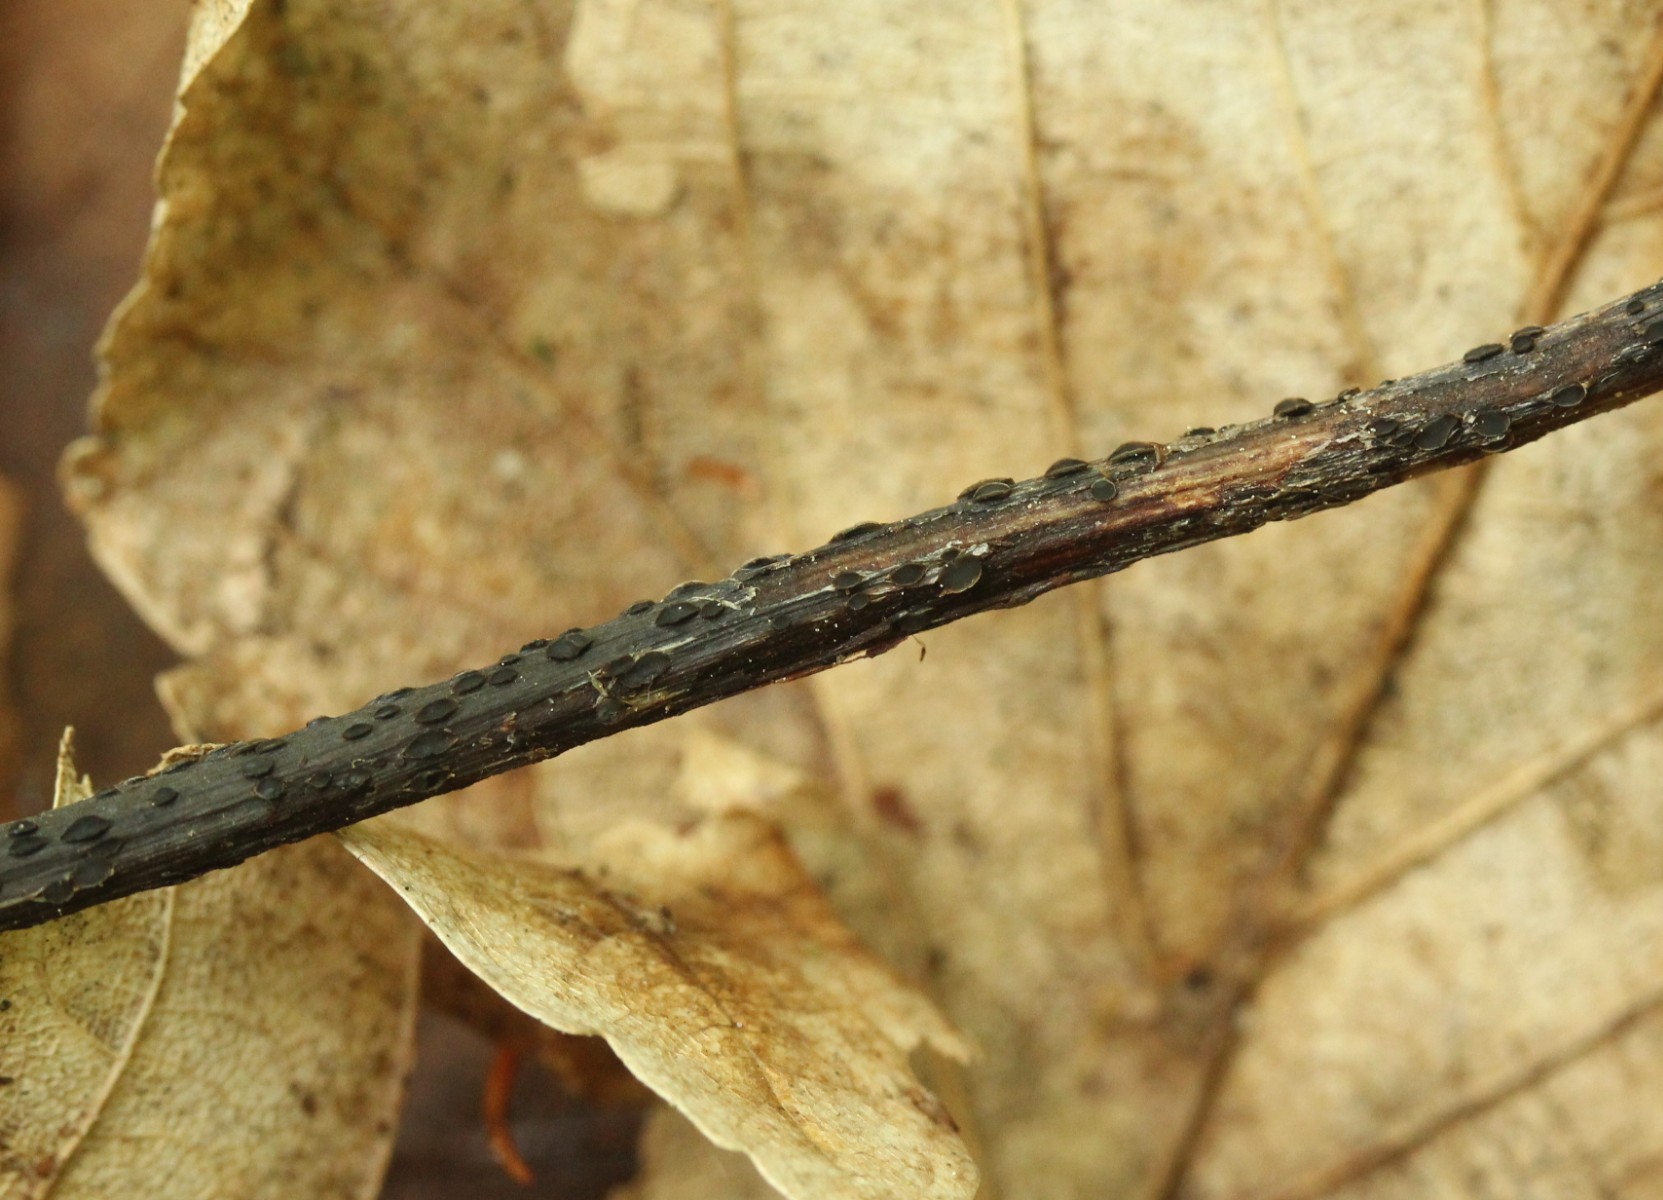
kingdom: Fungi
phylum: Ascomycota
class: Leotiomycetes
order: Helotiales
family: Ploettnerulaceae
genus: Pyrenopeziza
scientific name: Pyrenopeziza petiolaris
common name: ahorn-kerneskive
